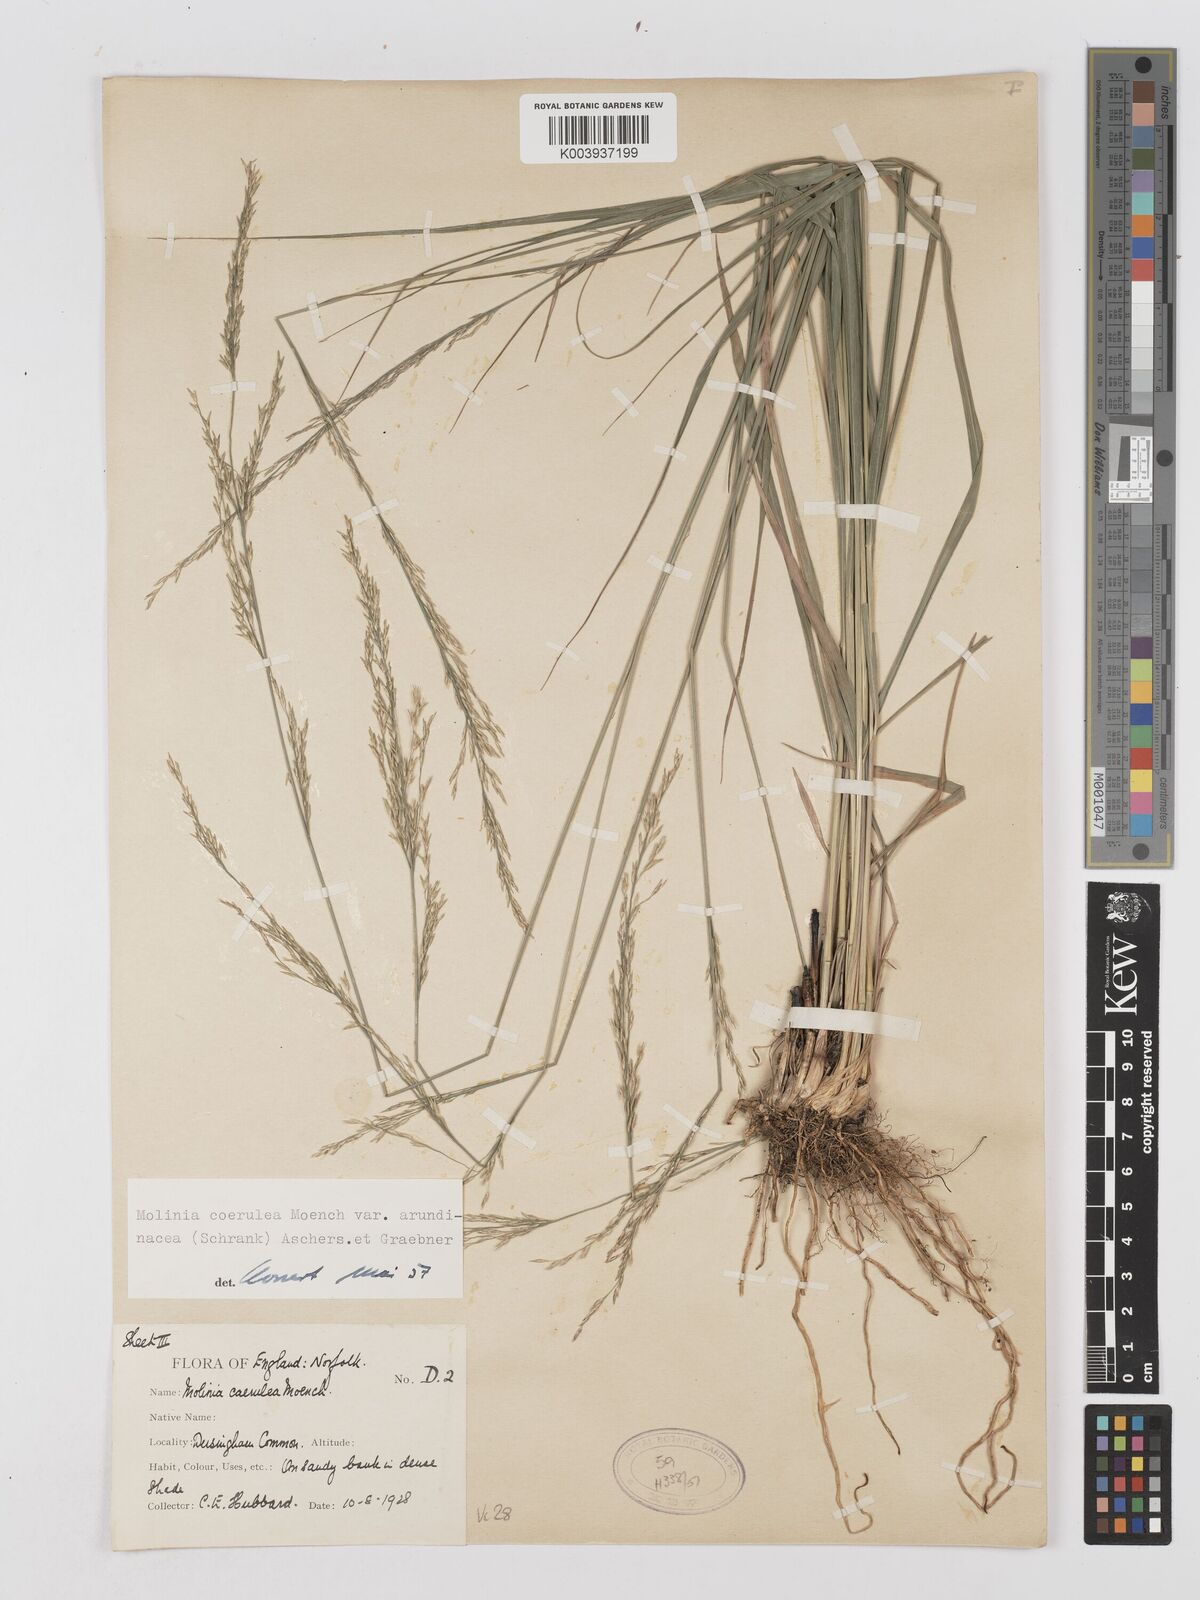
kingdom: Plantae
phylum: Tracheophyta
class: Liliopsida
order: Poales
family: Poaceae
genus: Molinia
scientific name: Molinia caerulea
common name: Purple moor-grass
